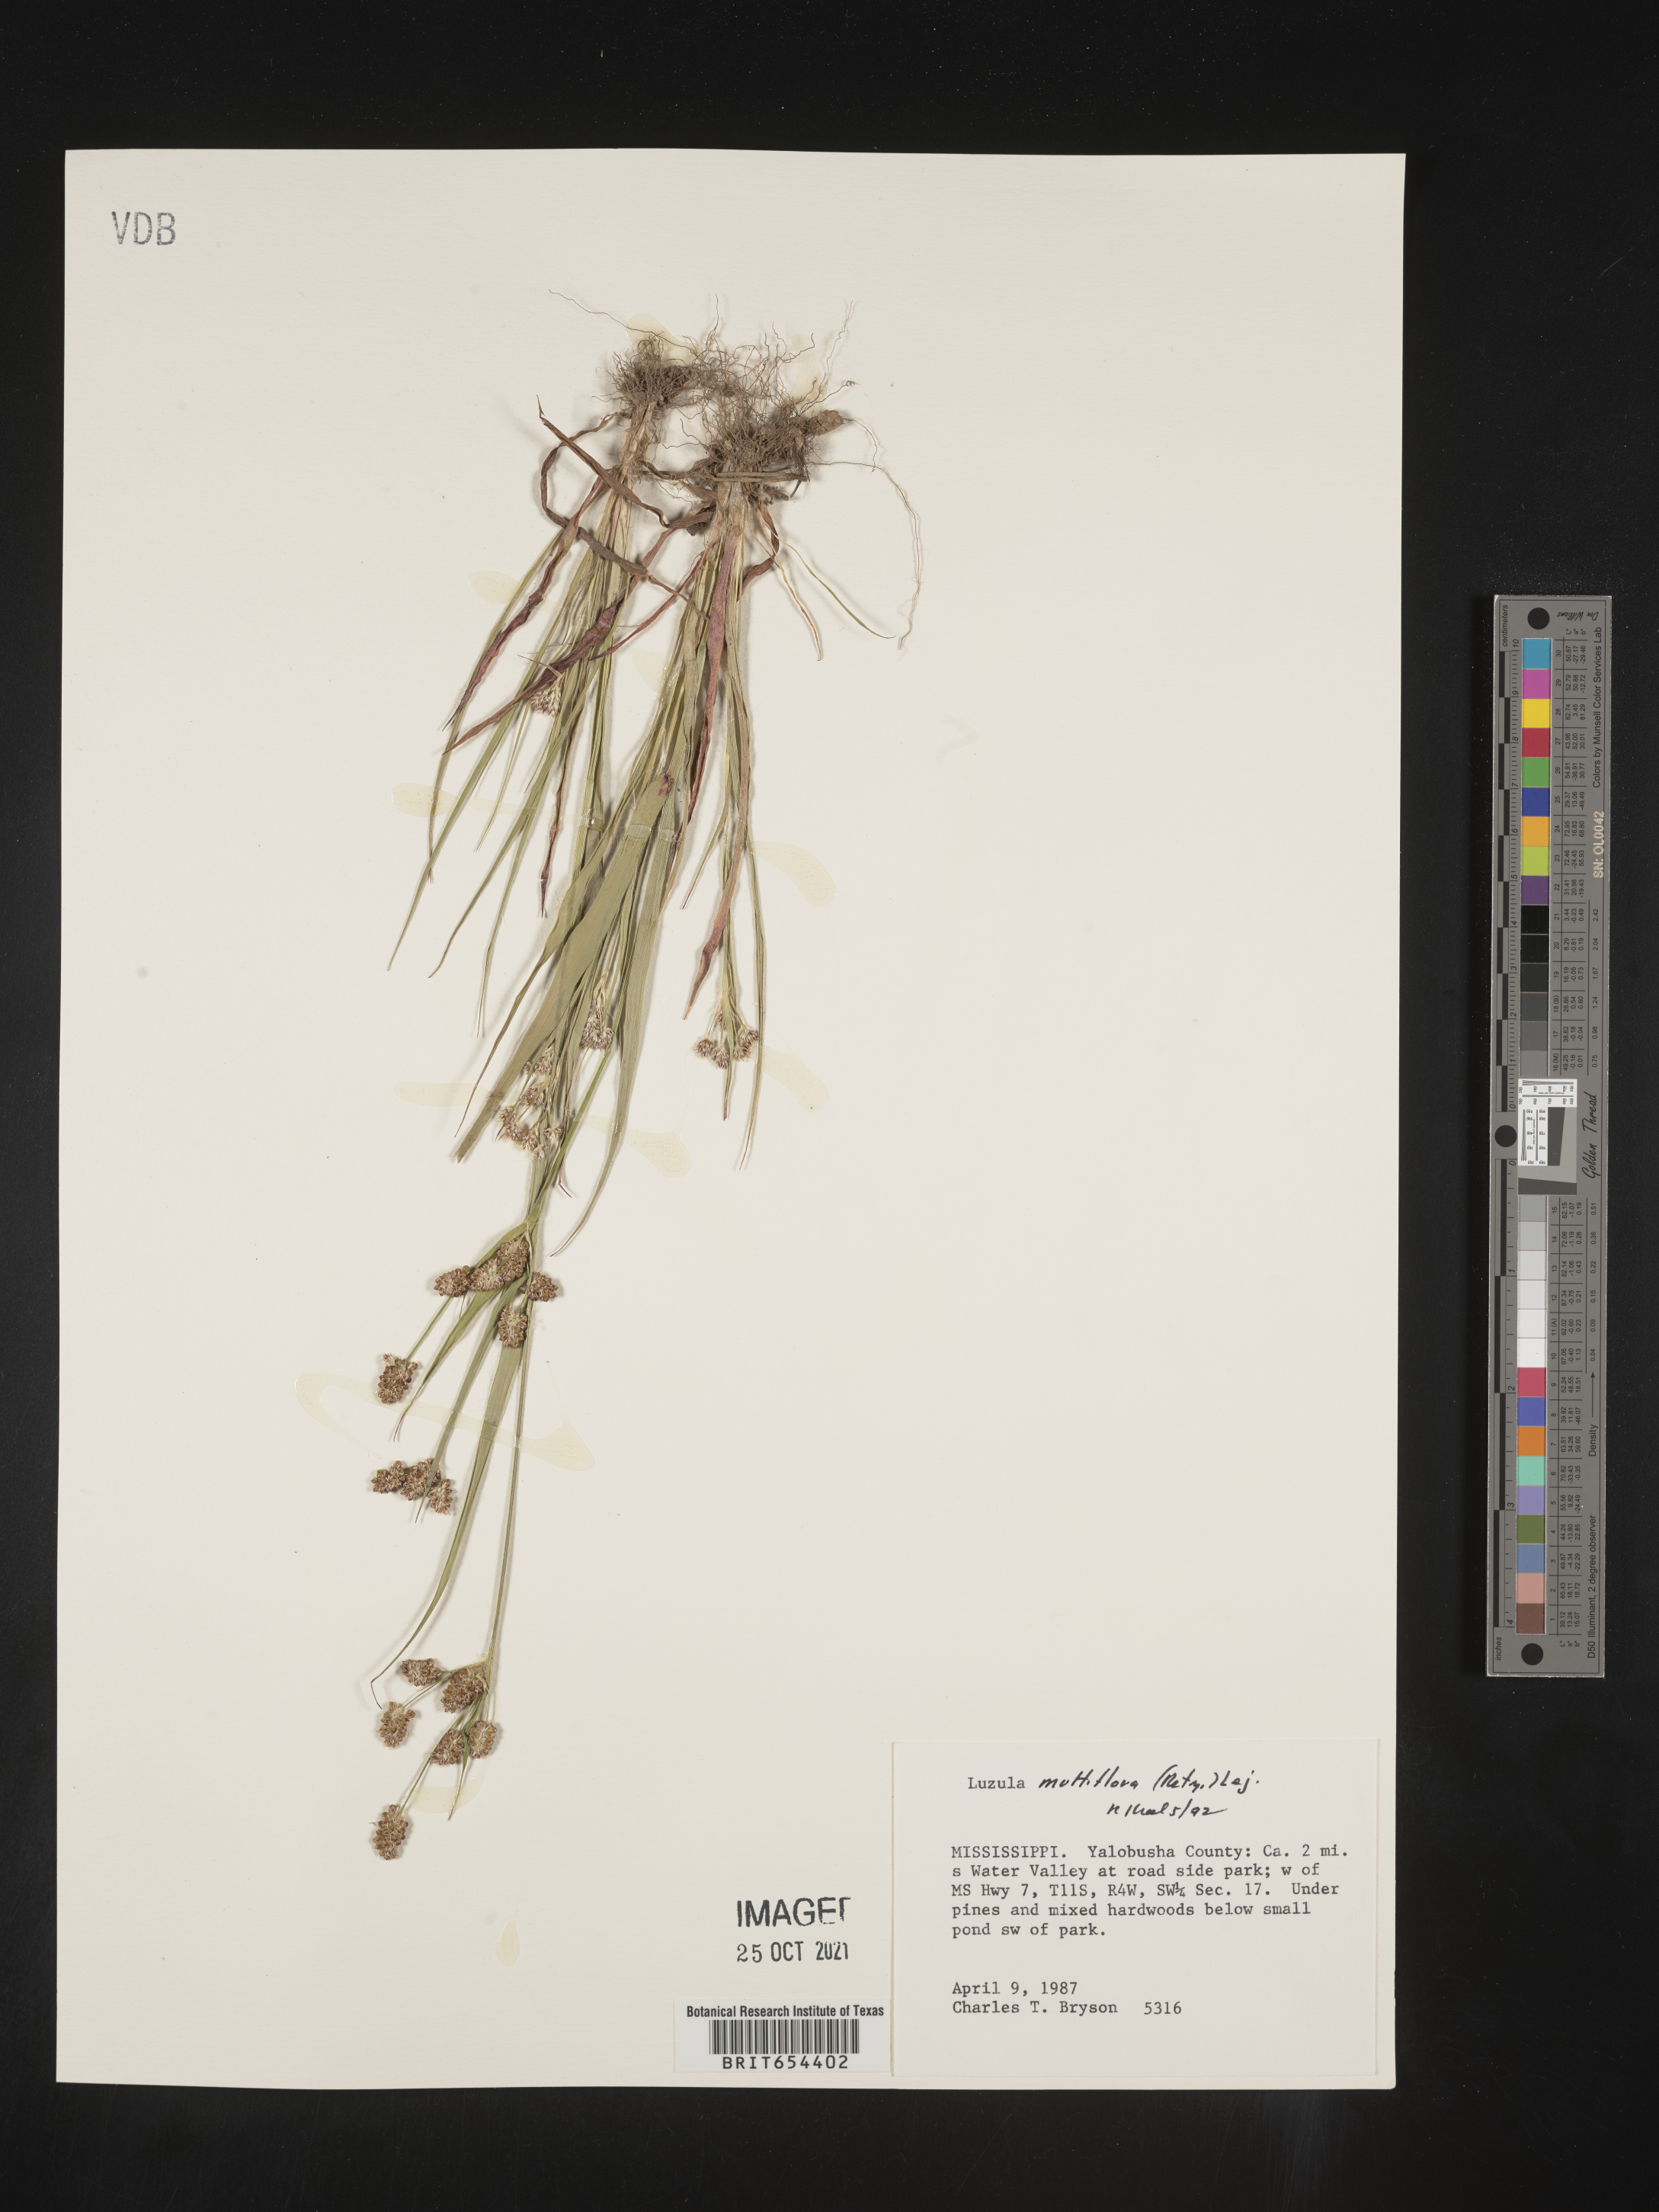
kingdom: Plantae
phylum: Tracheophyta
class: Liliopsida
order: Poales
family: Juncaceae
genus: Luzula
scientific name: Luzula multiflora
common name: Heath wood-rush
